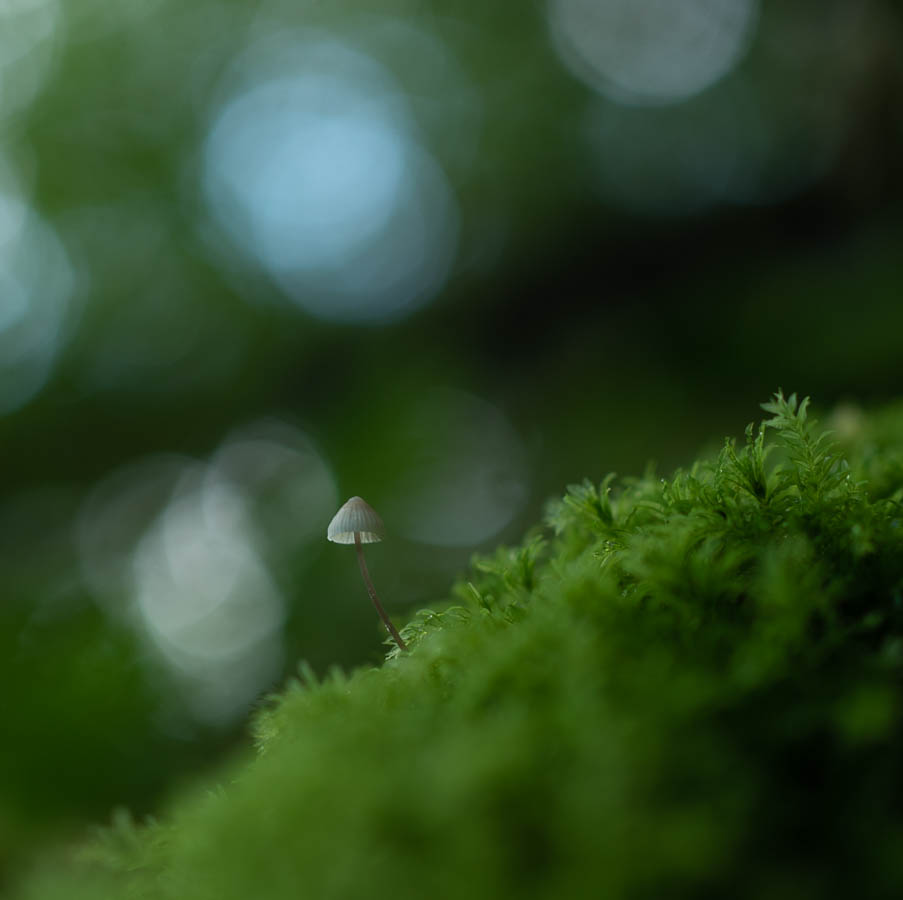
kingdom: Fungi
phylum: Basidiomycota
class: Agaricomycetes
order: Agaricales
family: Mycenaceae
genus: Mycena
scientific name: Mycena
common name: huesvamp
